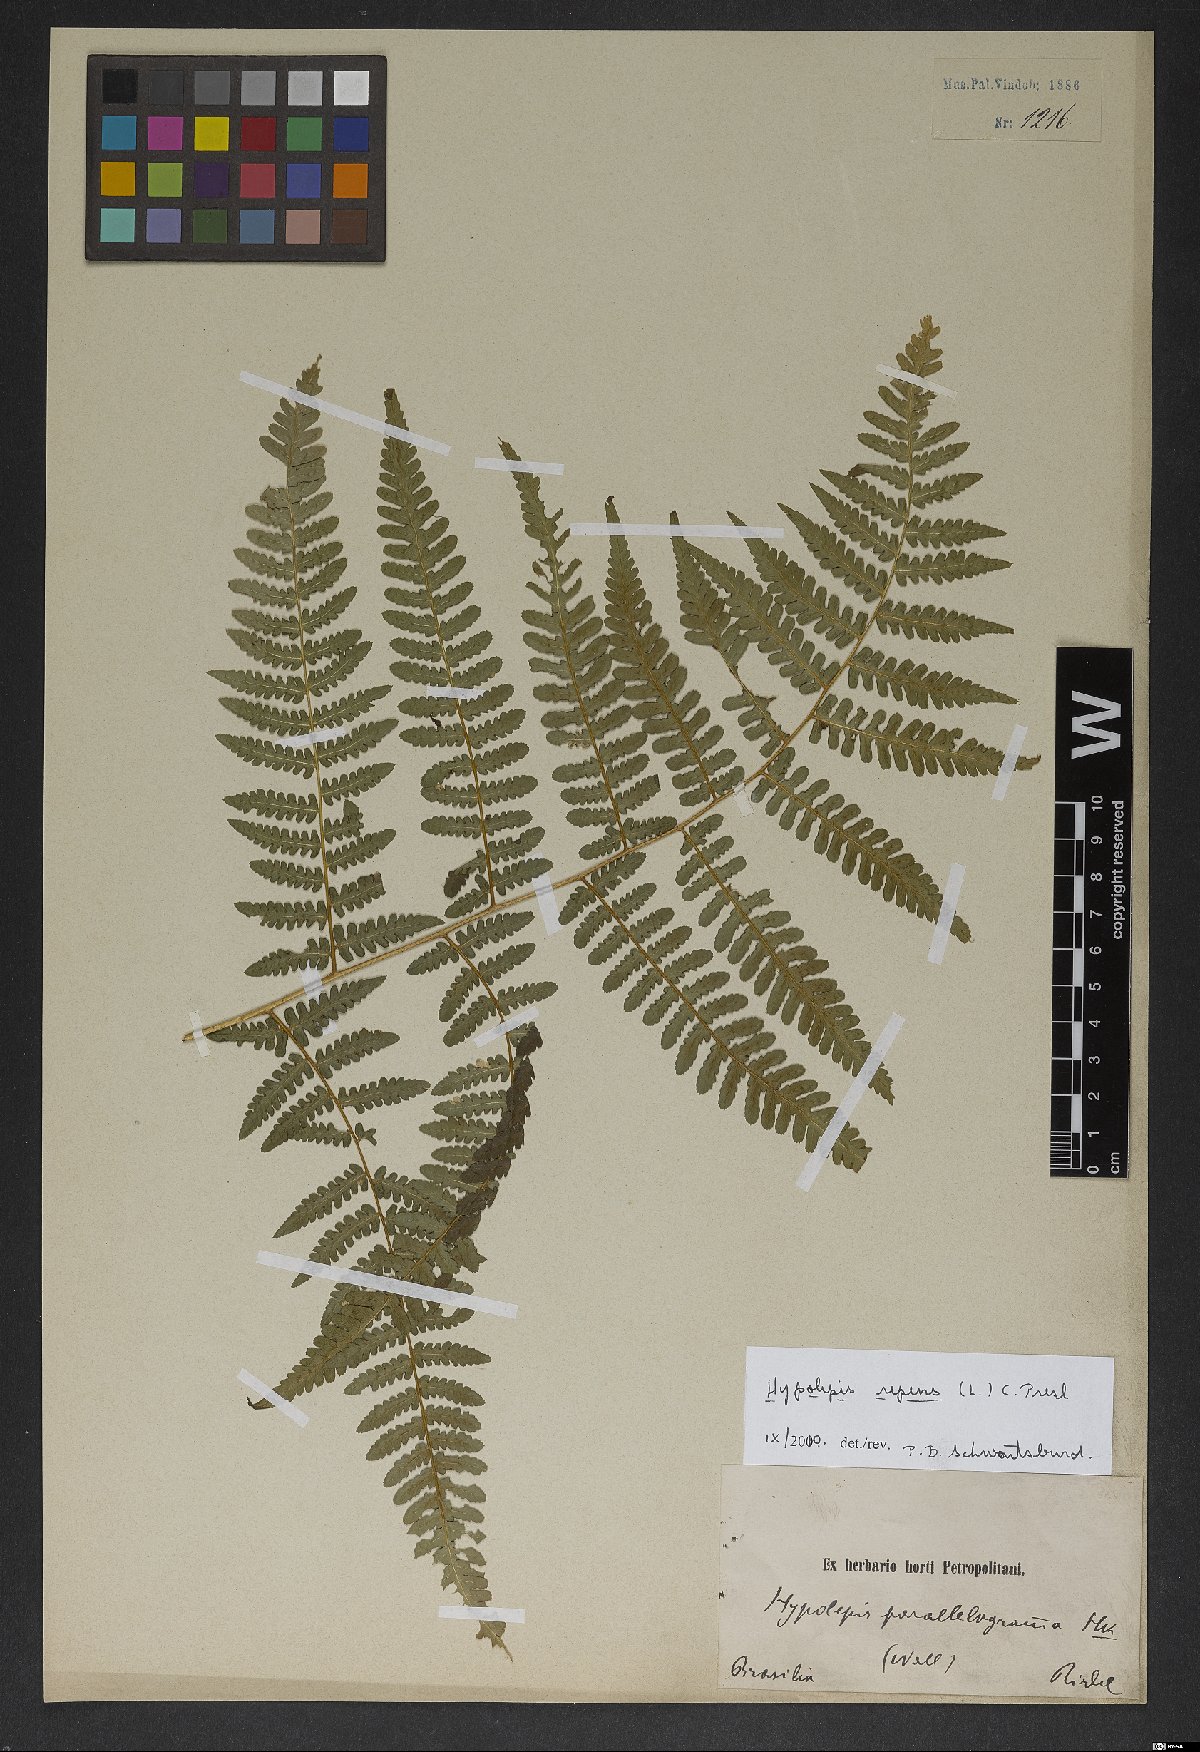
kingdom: Plantae
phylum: Tracheophyta
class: Polypodiopsida
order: Polypodiales
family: Dennstaedtiaceae
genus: Hypolepis
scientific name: Hypolepis repens
